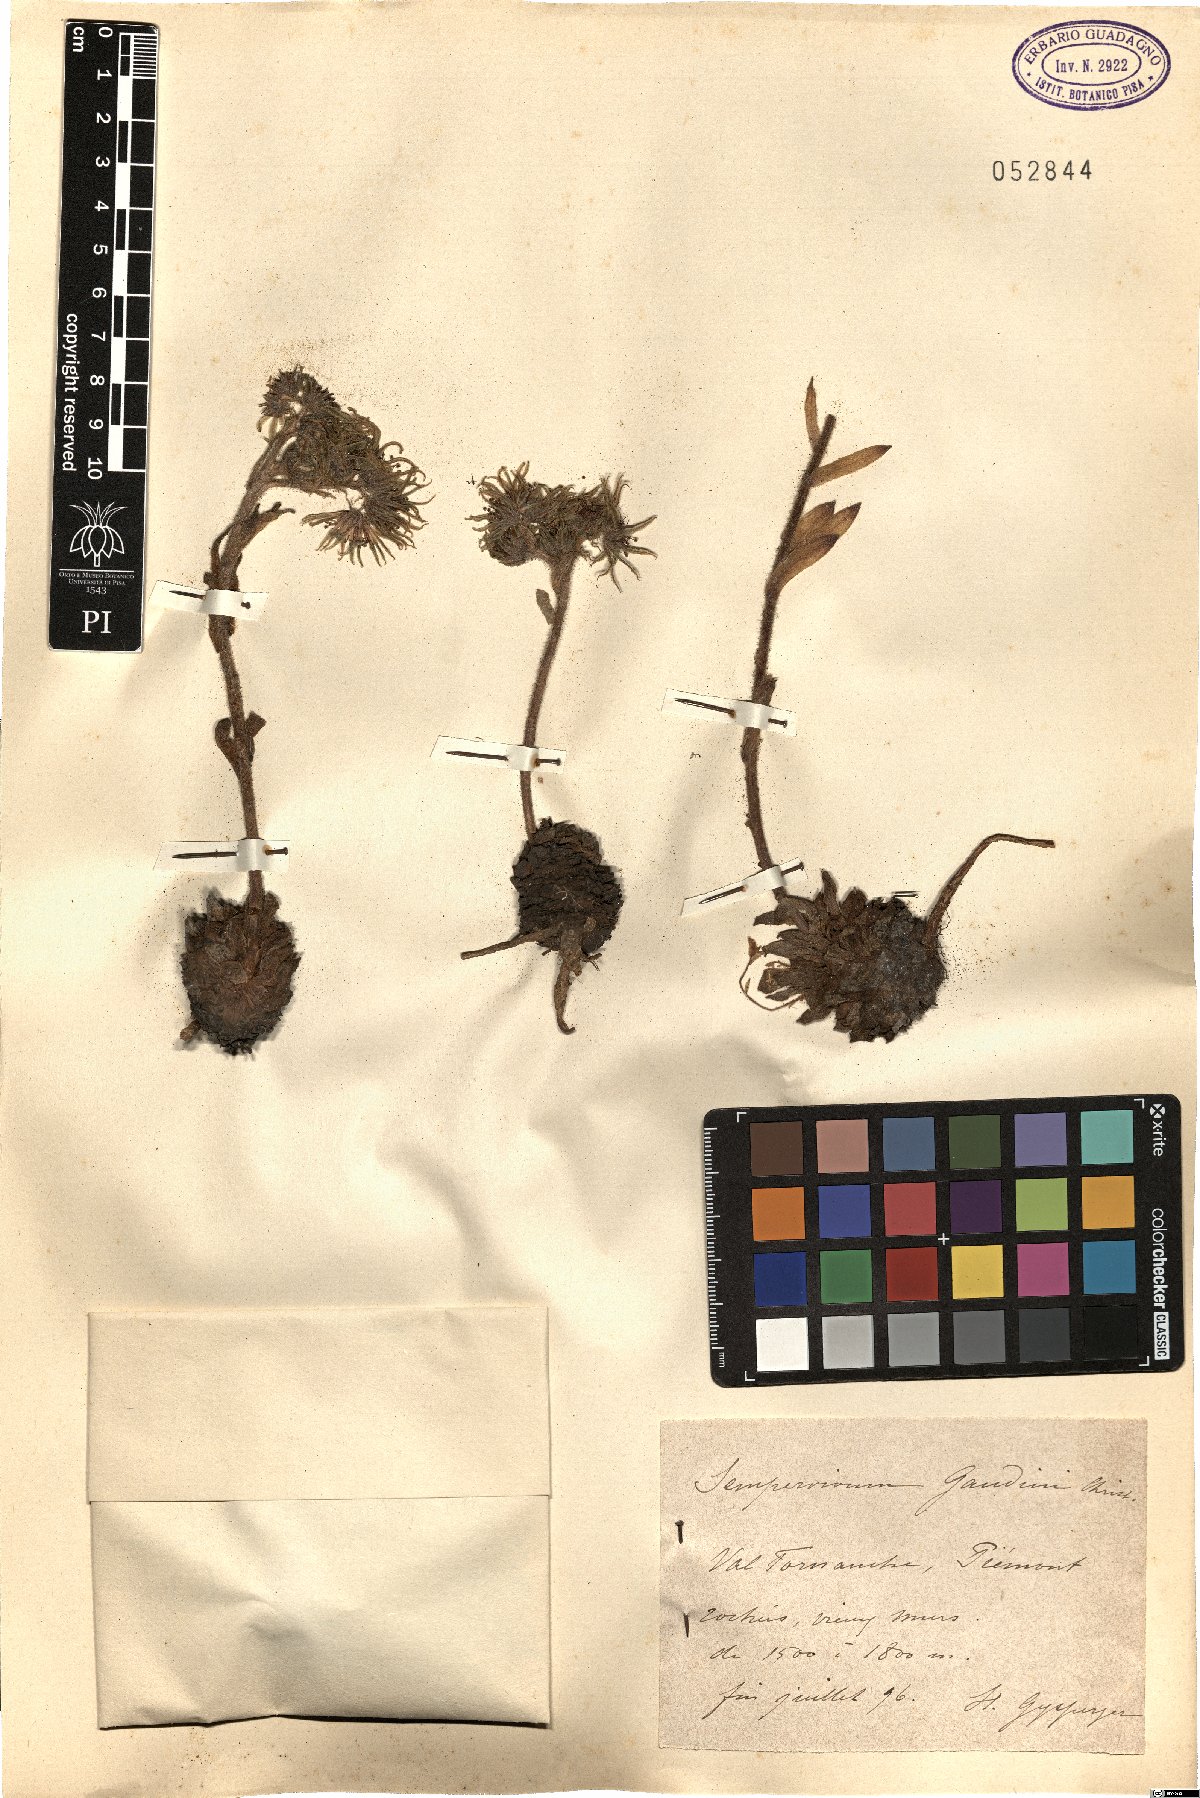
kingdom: Plantae
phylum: Tracheophyta
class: Magnoliopsida
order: Saxifragales
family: Crassulaceae
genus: Sempervivum
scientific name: Sempervivum grandiflorum
